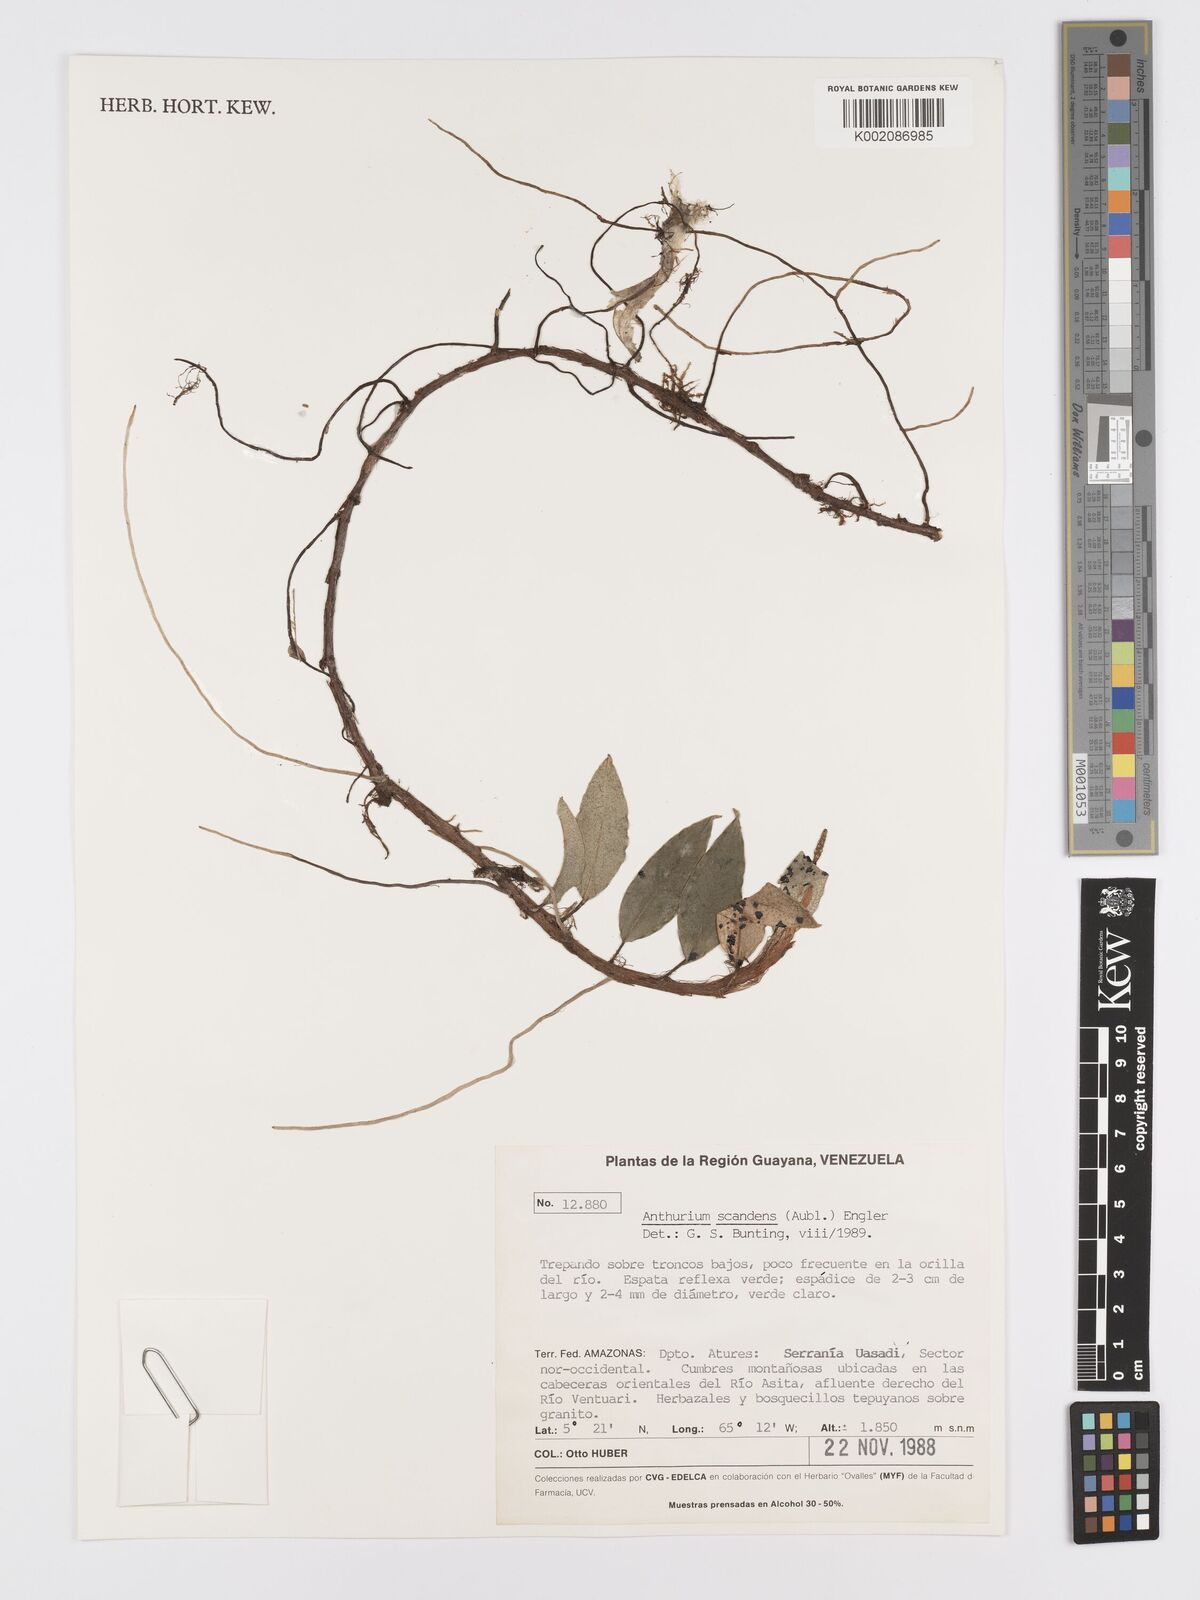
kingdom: Plantae
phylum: Tracheophyta
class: Liliopsida
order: Alismatales
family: Araceae
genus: Anthurium
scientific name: Anthurium scandens
